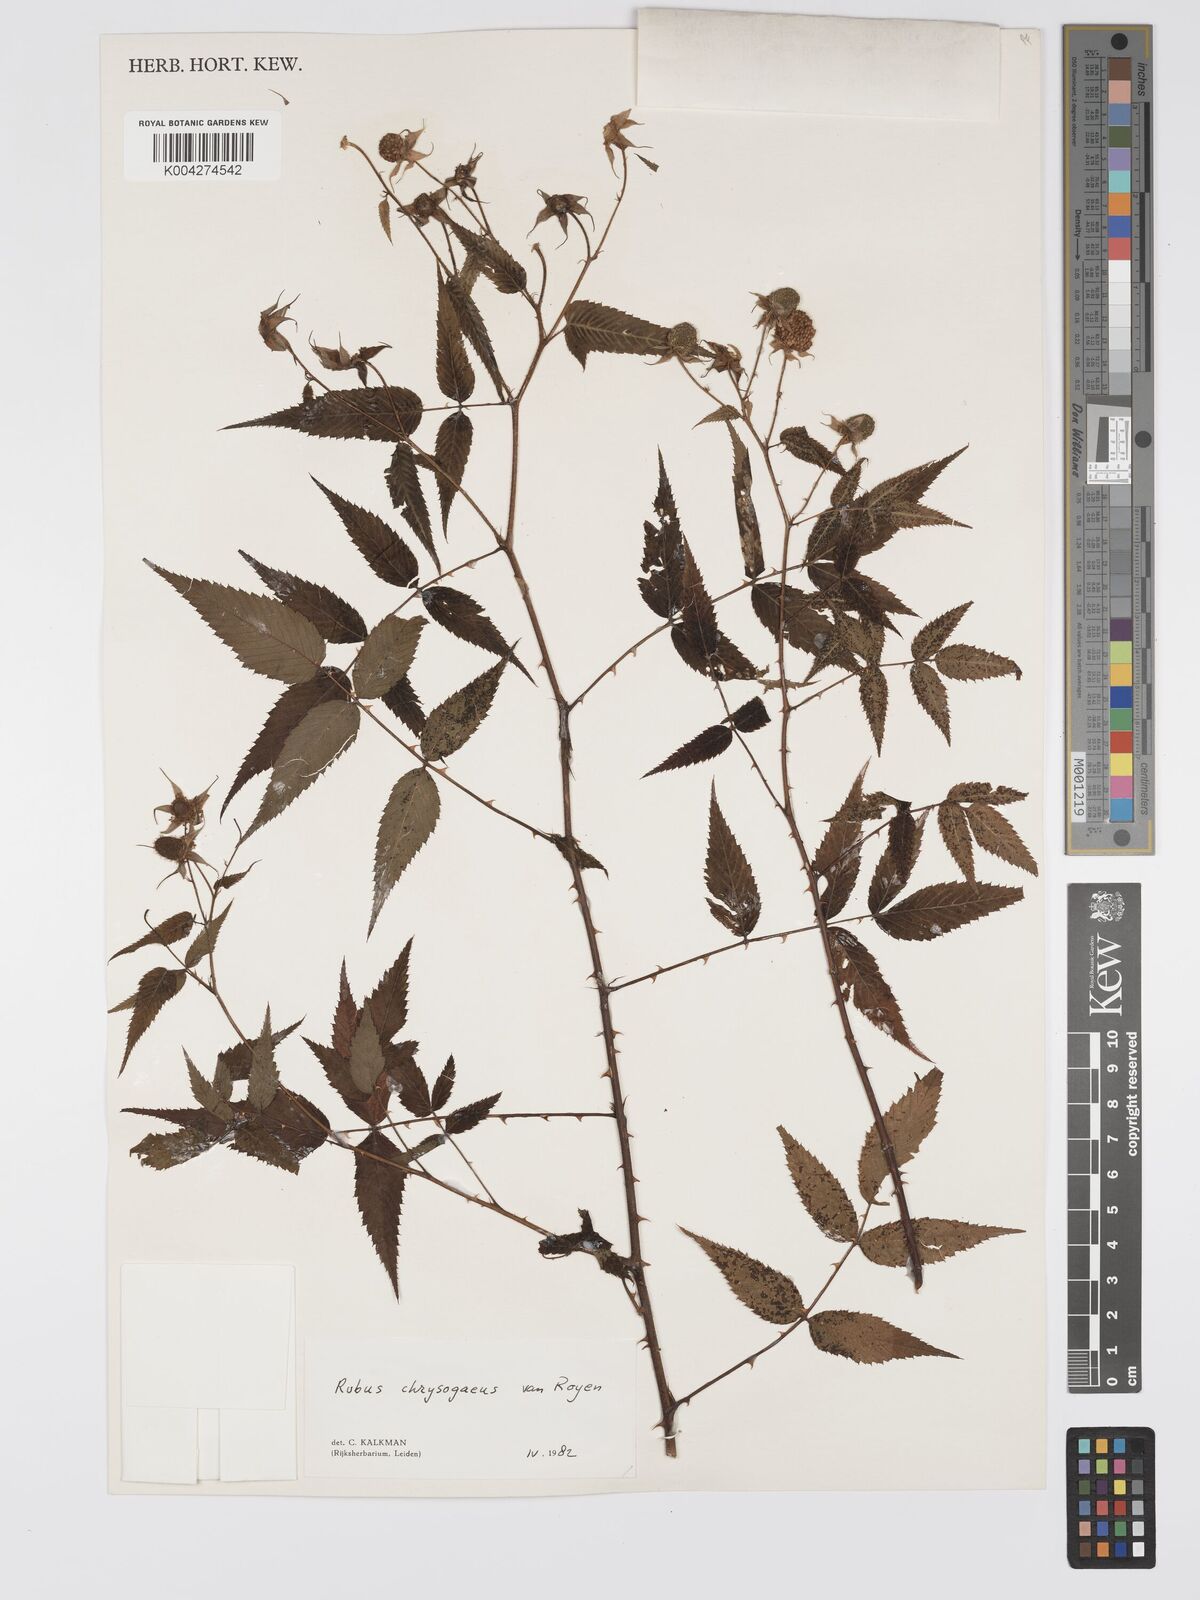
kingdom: Plantae
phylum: Tracheophyta
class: Magnoliopsida
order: Rosales
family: Rosaceae
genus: Rubus
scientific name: Rubus chrysogaeus
